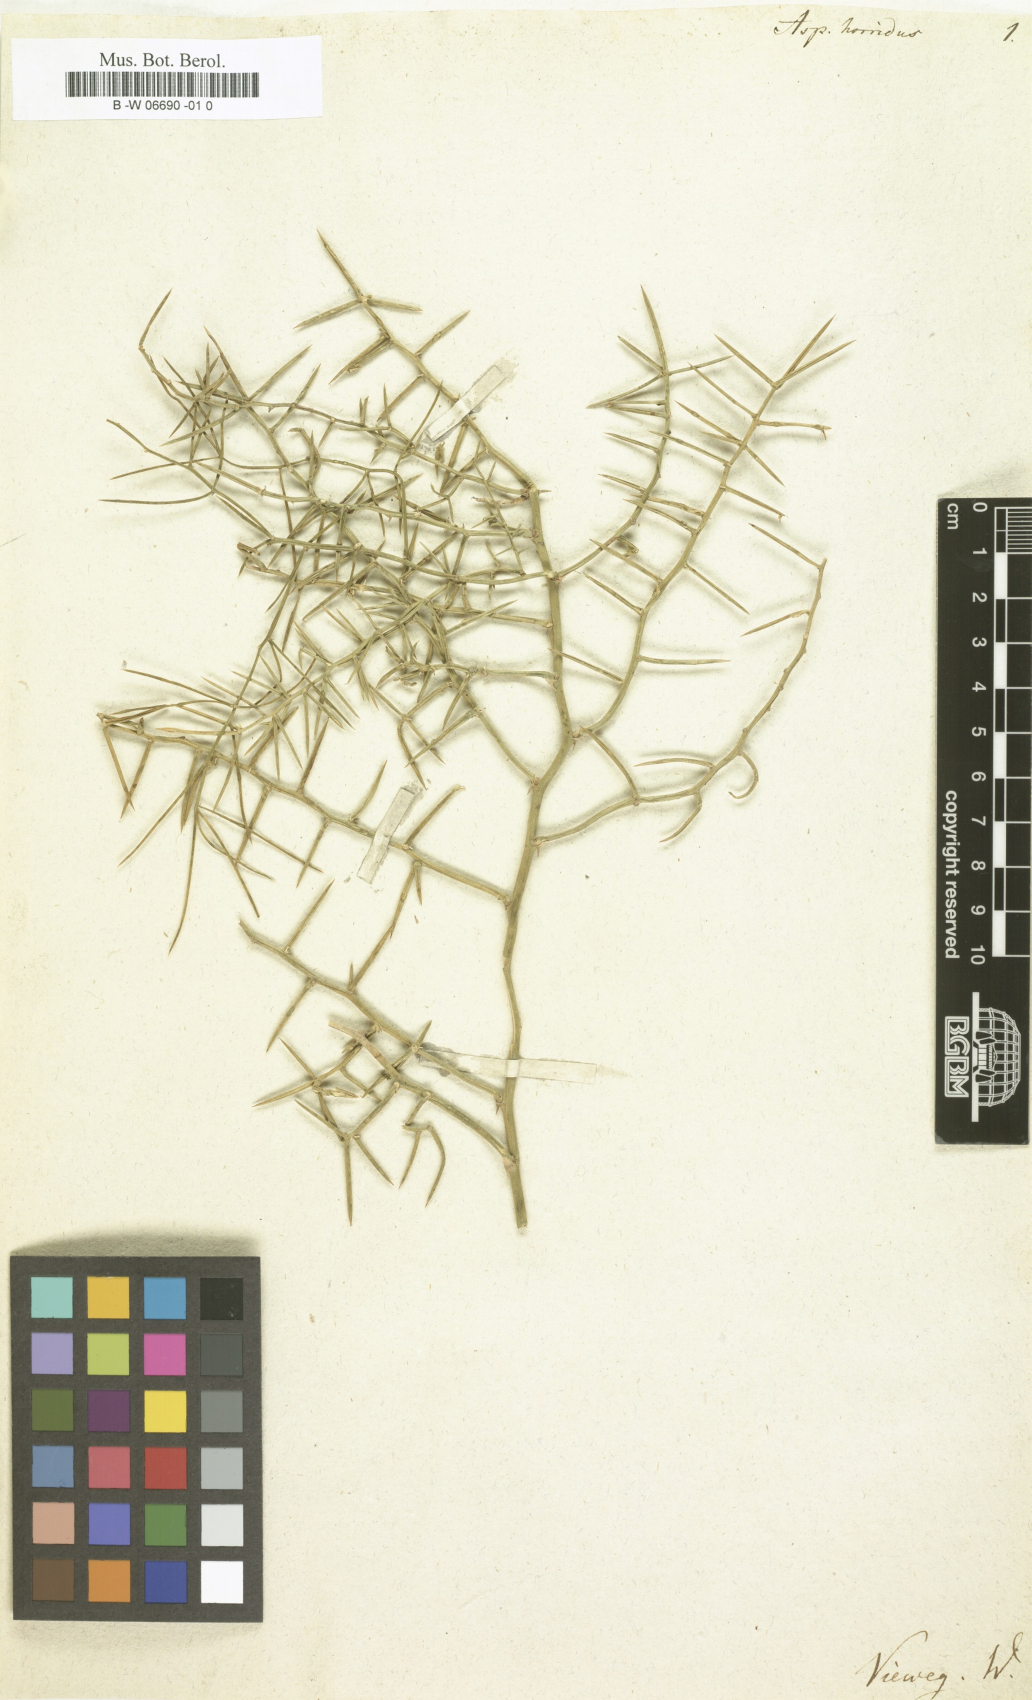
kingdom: Plantae
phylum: Tracheophyta
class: Liliopsida
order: Asparagales
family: Asparagaceae
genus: Asparagus
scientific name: Asparagus horridus
